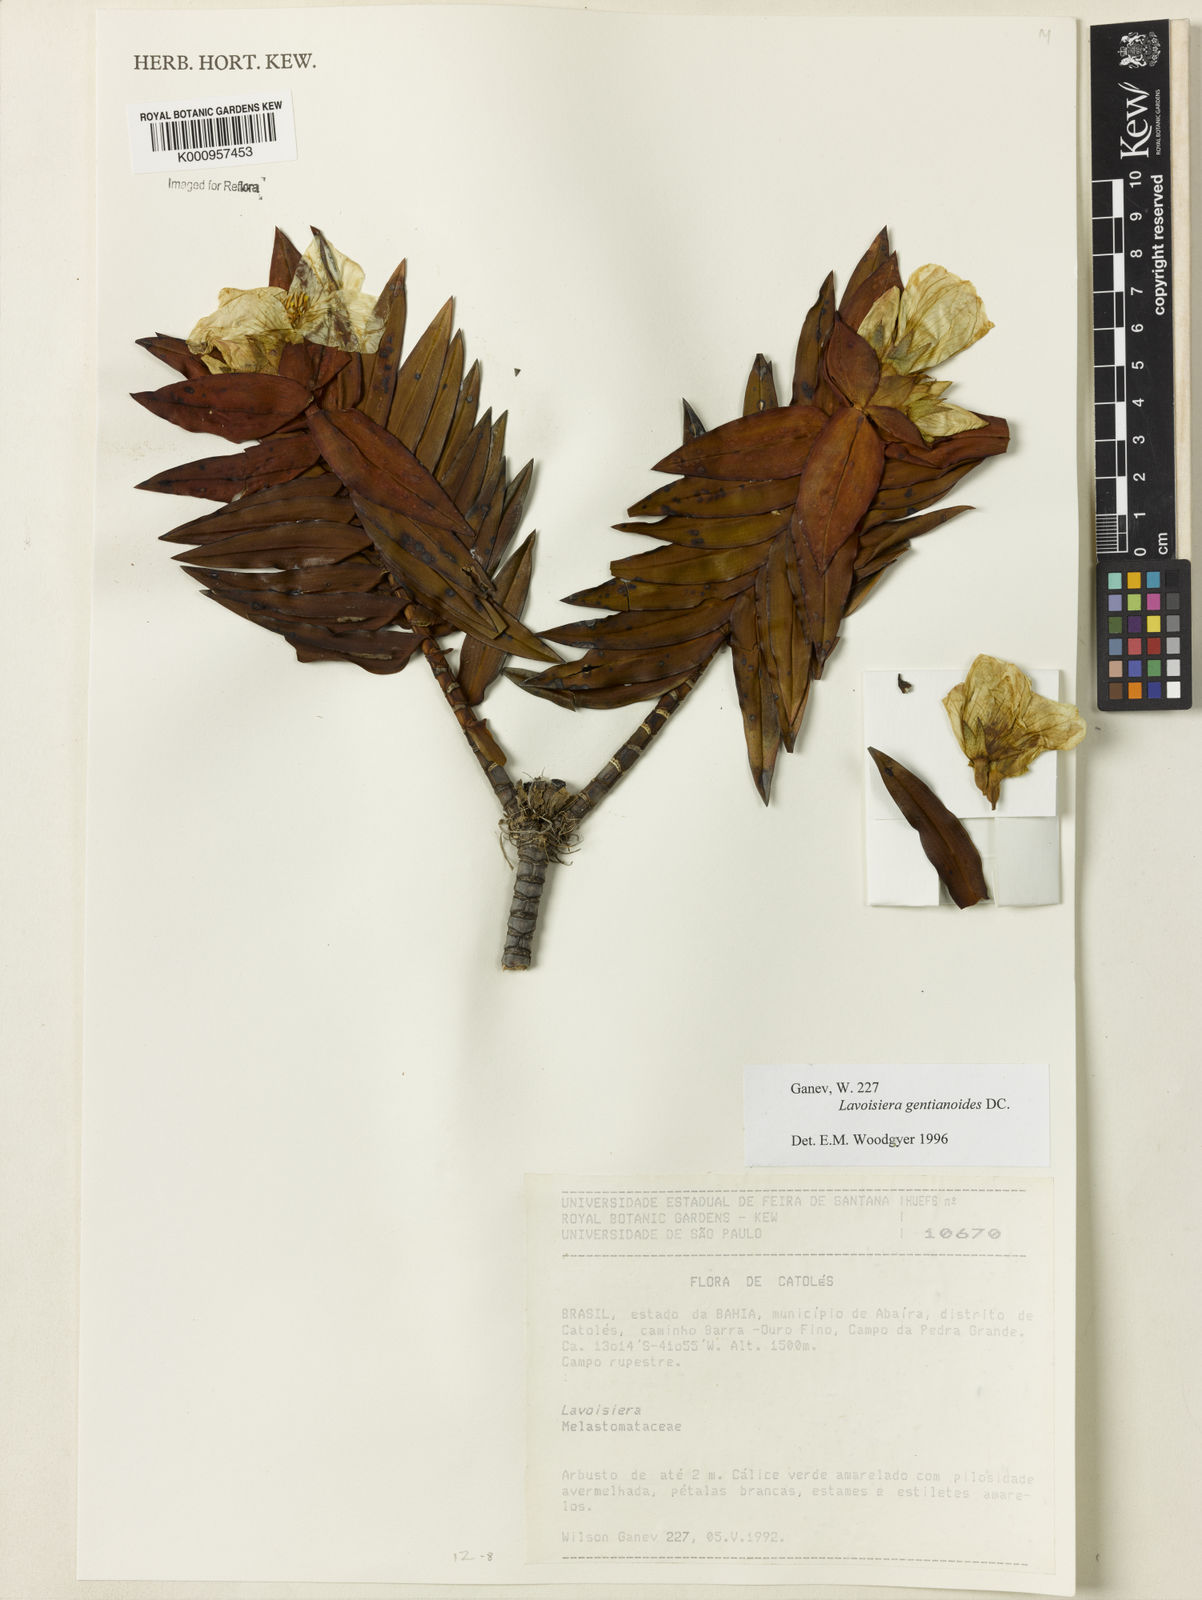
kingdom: Plantae
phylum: Tracheophyta
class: Magnoliopsida
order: Myrtales
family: Melastomataceae
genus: Microlicia
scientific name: Microlicia gentianoides
